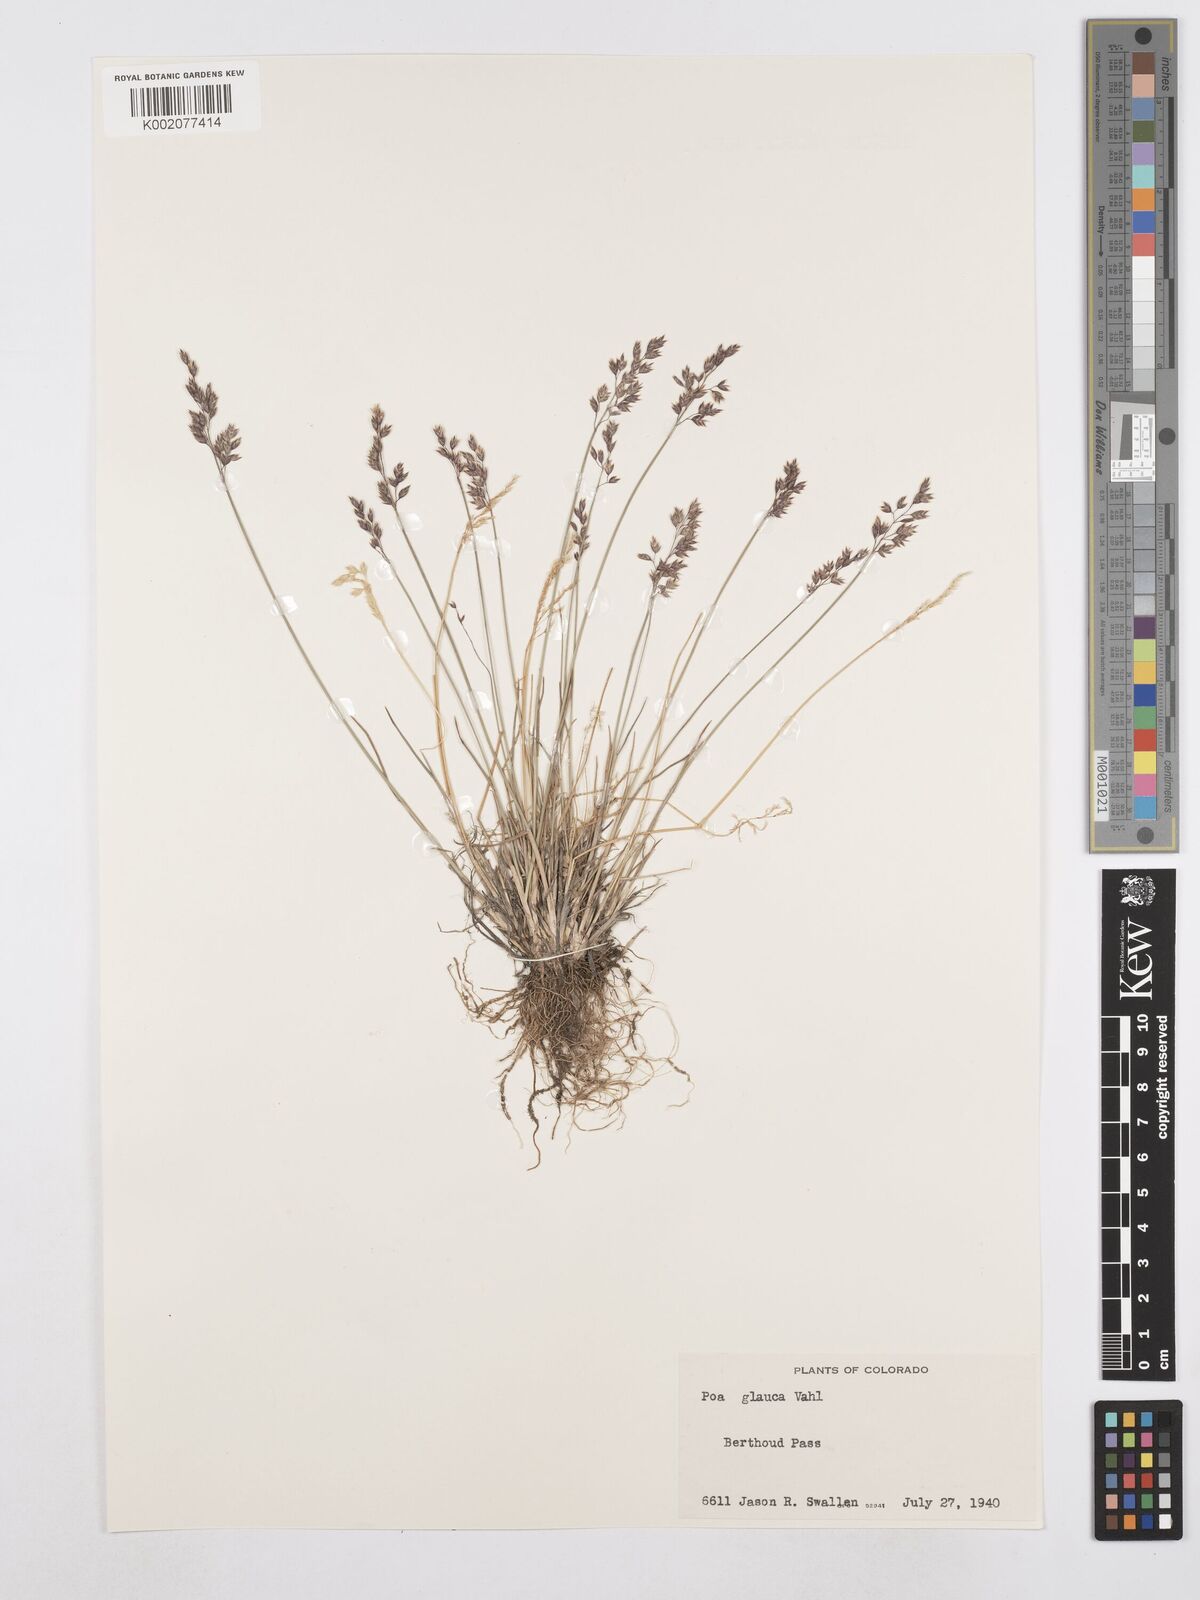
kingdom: Plantae
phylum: Tracheophyta
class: Liliopsida
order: Poales
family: Poaceae
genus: Poa
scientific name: Poa glauca
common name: Glaucous bluegrass
